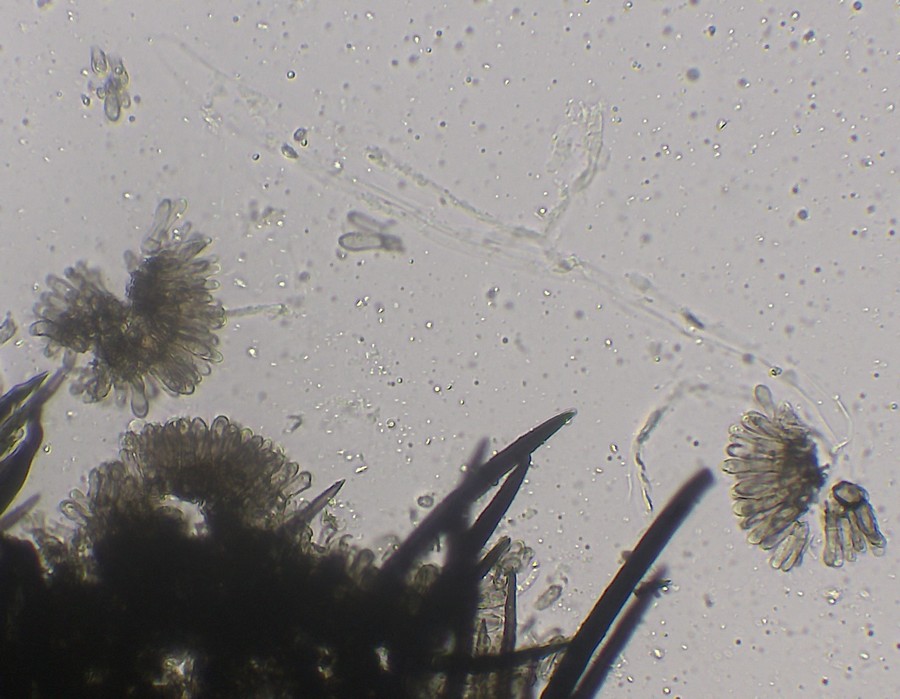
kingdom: Fungi
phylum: Ascomycota
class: Sordariomycetes
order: Glomerellales
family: Glomerellaceae
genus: Colletotrichum
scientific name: Colletotrichum
